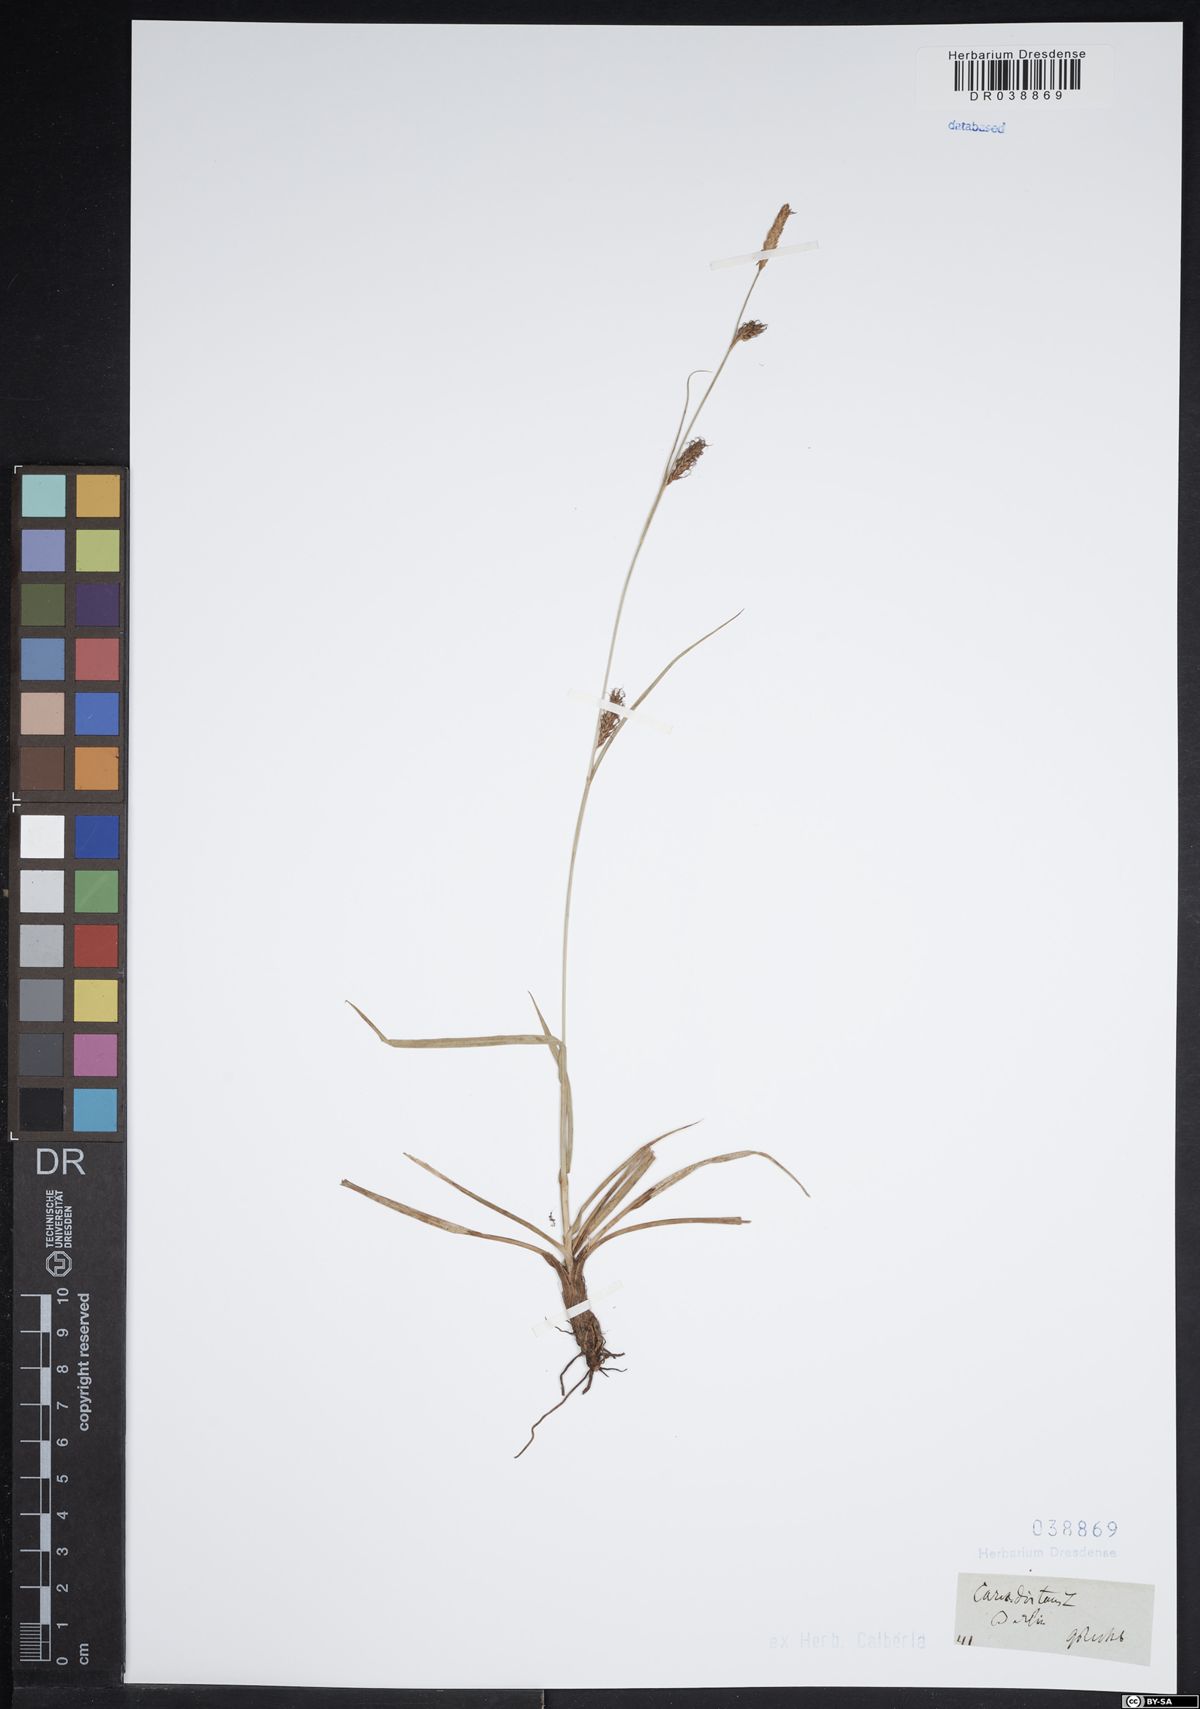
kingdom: Plantae
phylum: Tracheophyta
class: Liliopsida
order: Poales
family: Cyperaceae
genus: Carex
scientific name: Carex distans
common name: Distant sedge
